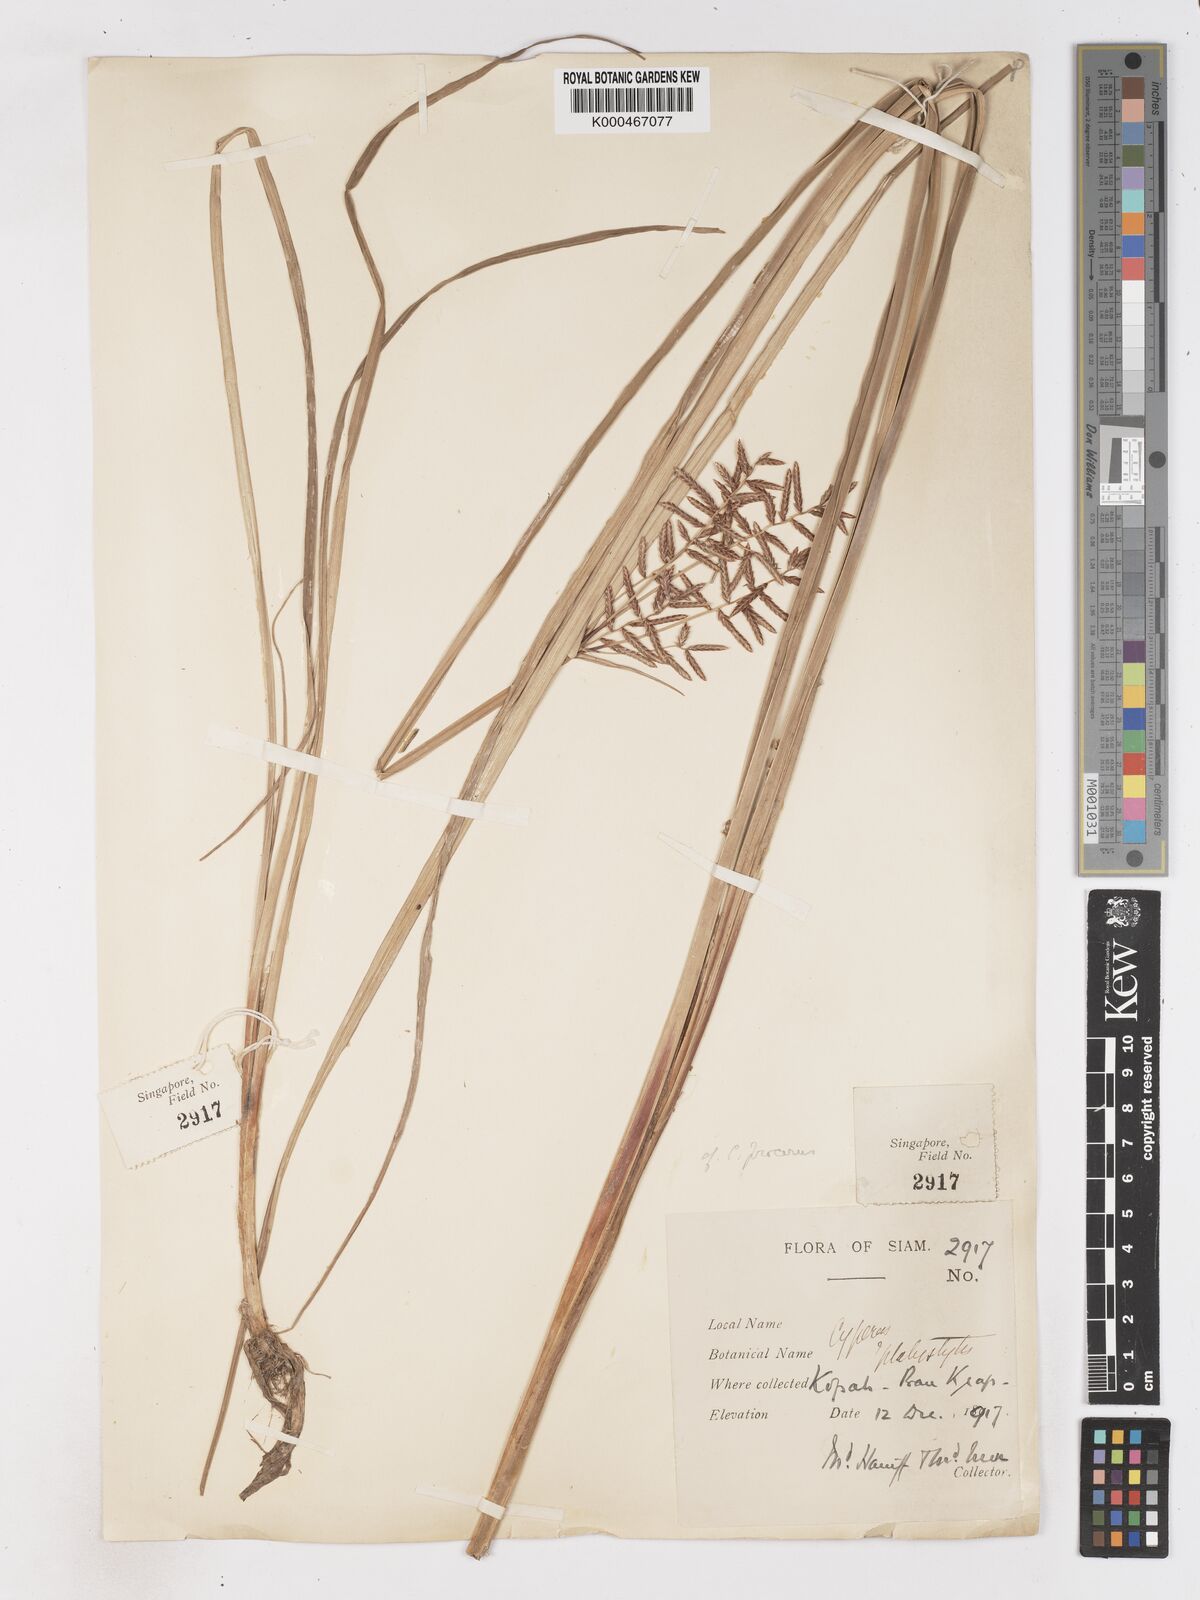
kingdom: Plantae
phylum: Tracheophyta
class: Liliopsida
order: Poales
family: Cyperaceae
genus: Cyperus
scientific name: Cyperus procerus
